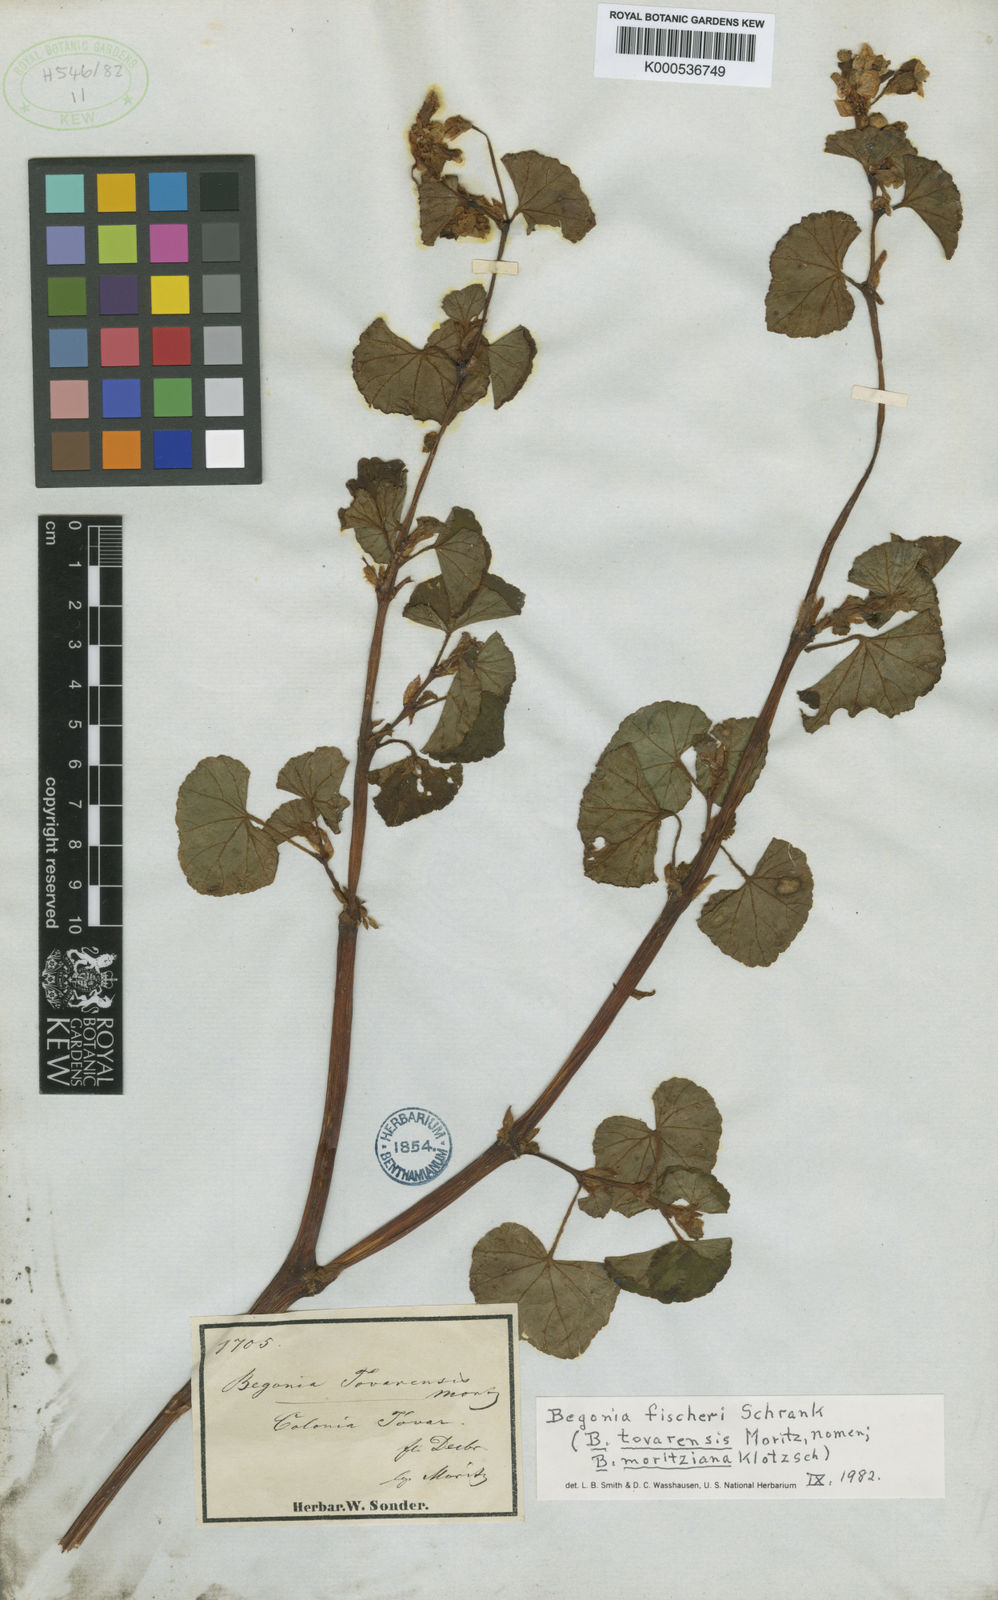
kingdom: Plantae
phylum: Tracheophyta
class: Magnoliopsida
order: Cucurbitales
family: Begoniaceae
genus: Begonia
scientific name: Begonia fischeri
